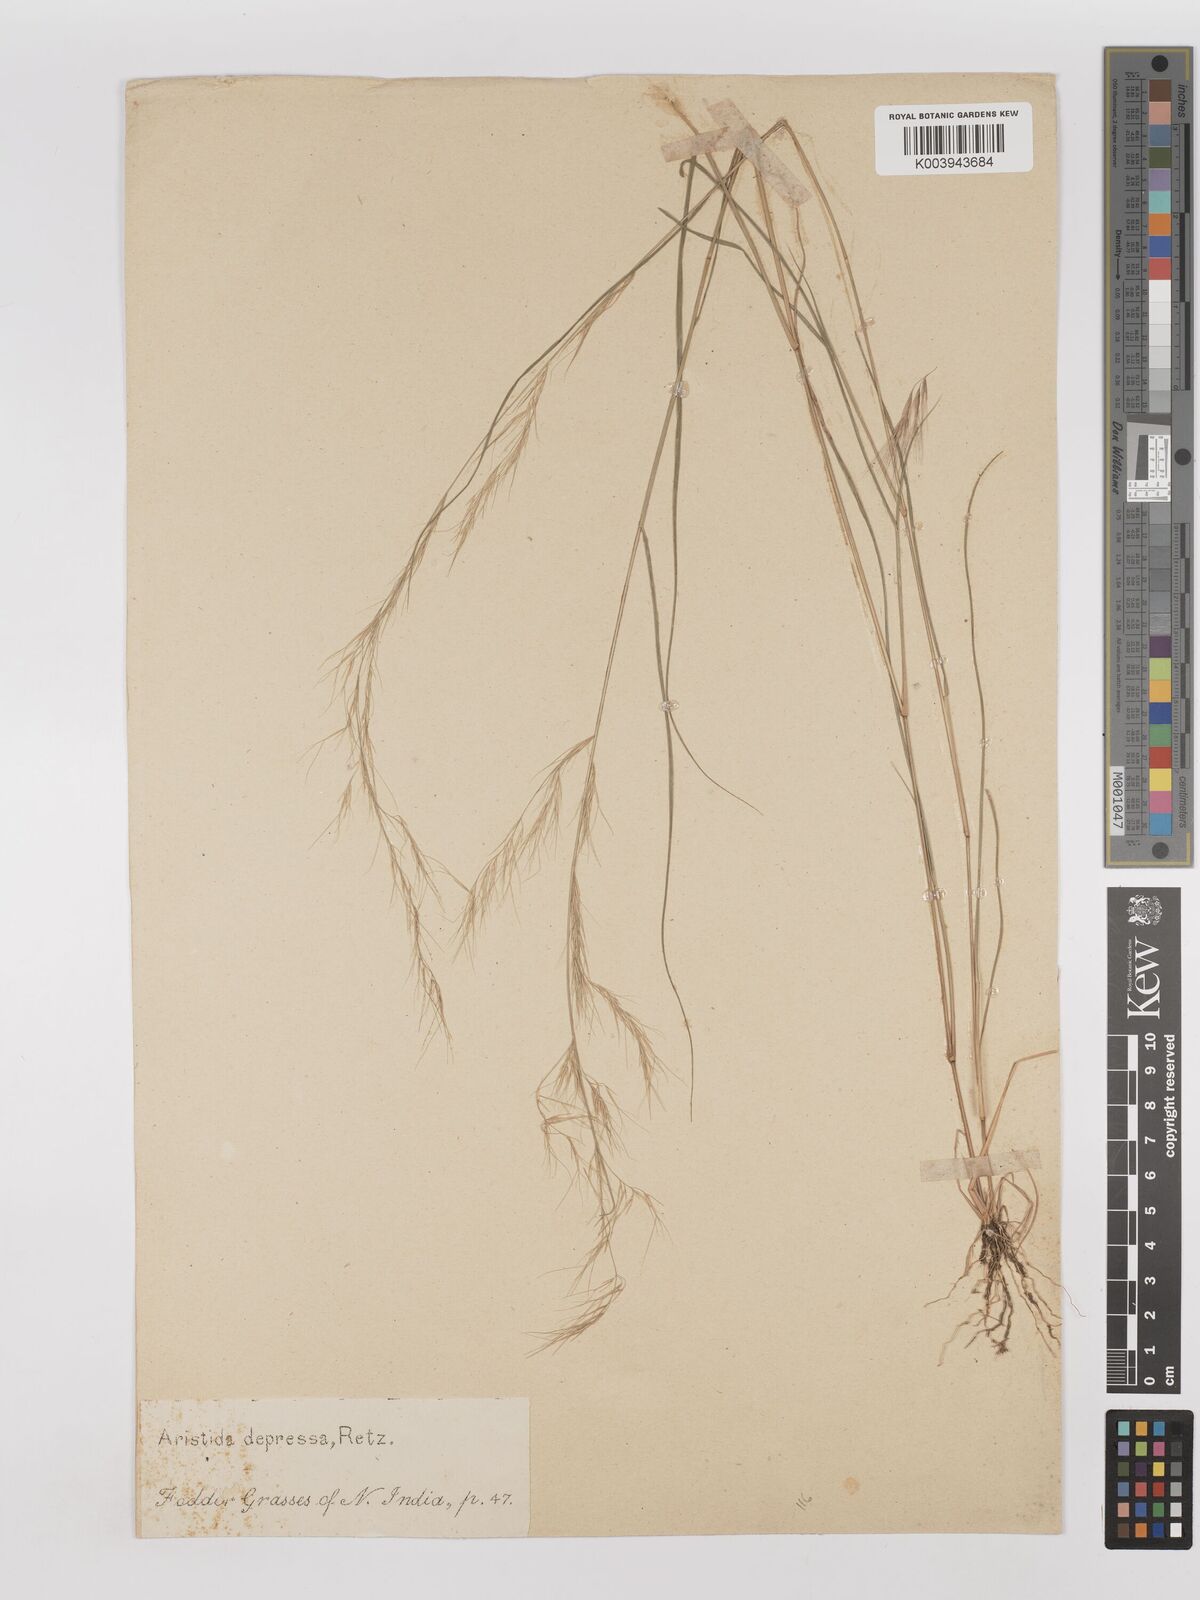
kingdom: Plantae
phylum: Tracheophyta
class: Liliopsida
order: Poales
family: Poaceae
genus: Aristida
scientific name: Aristida adscensionis
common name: Sixweeks threeawn
